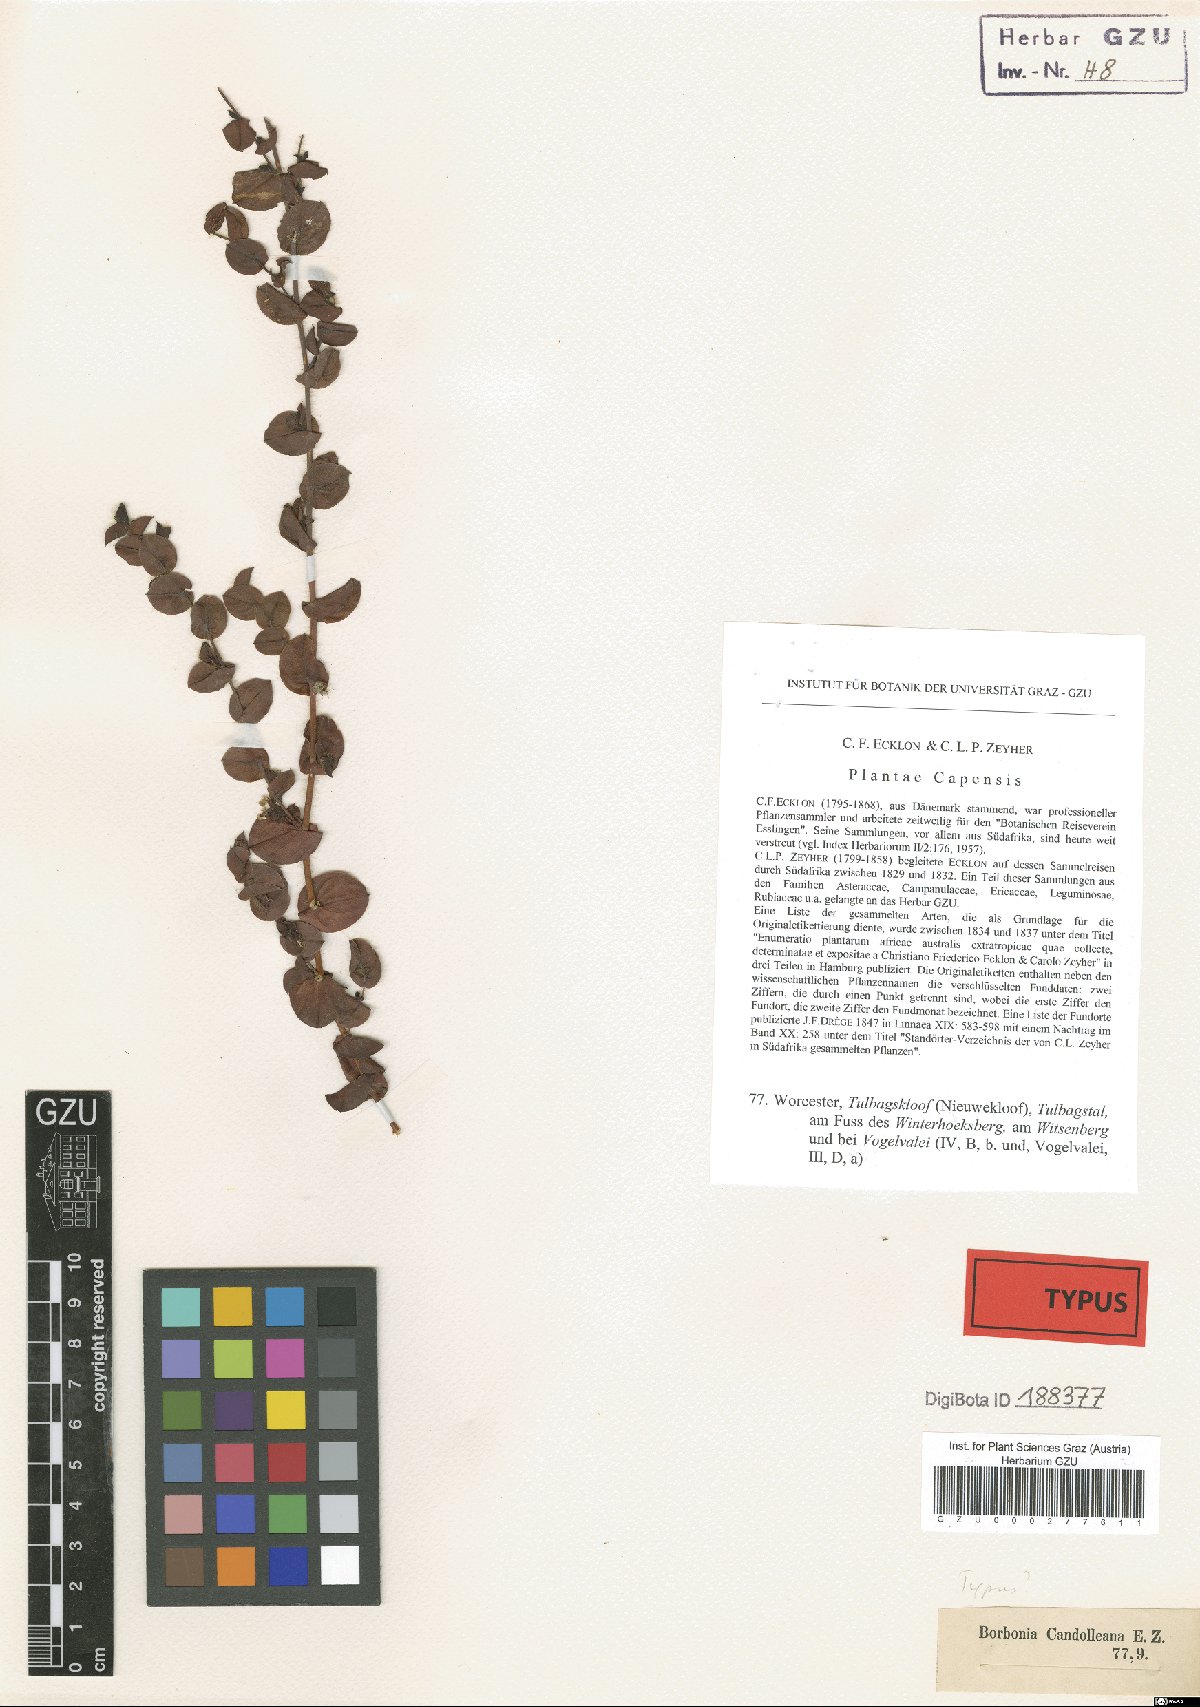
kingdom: Plantae
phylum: Tracheophyta
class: Magnoliopsida
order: Fabales
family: Fabaceae
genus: Aspalathus
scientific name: Aspalathus perforata
